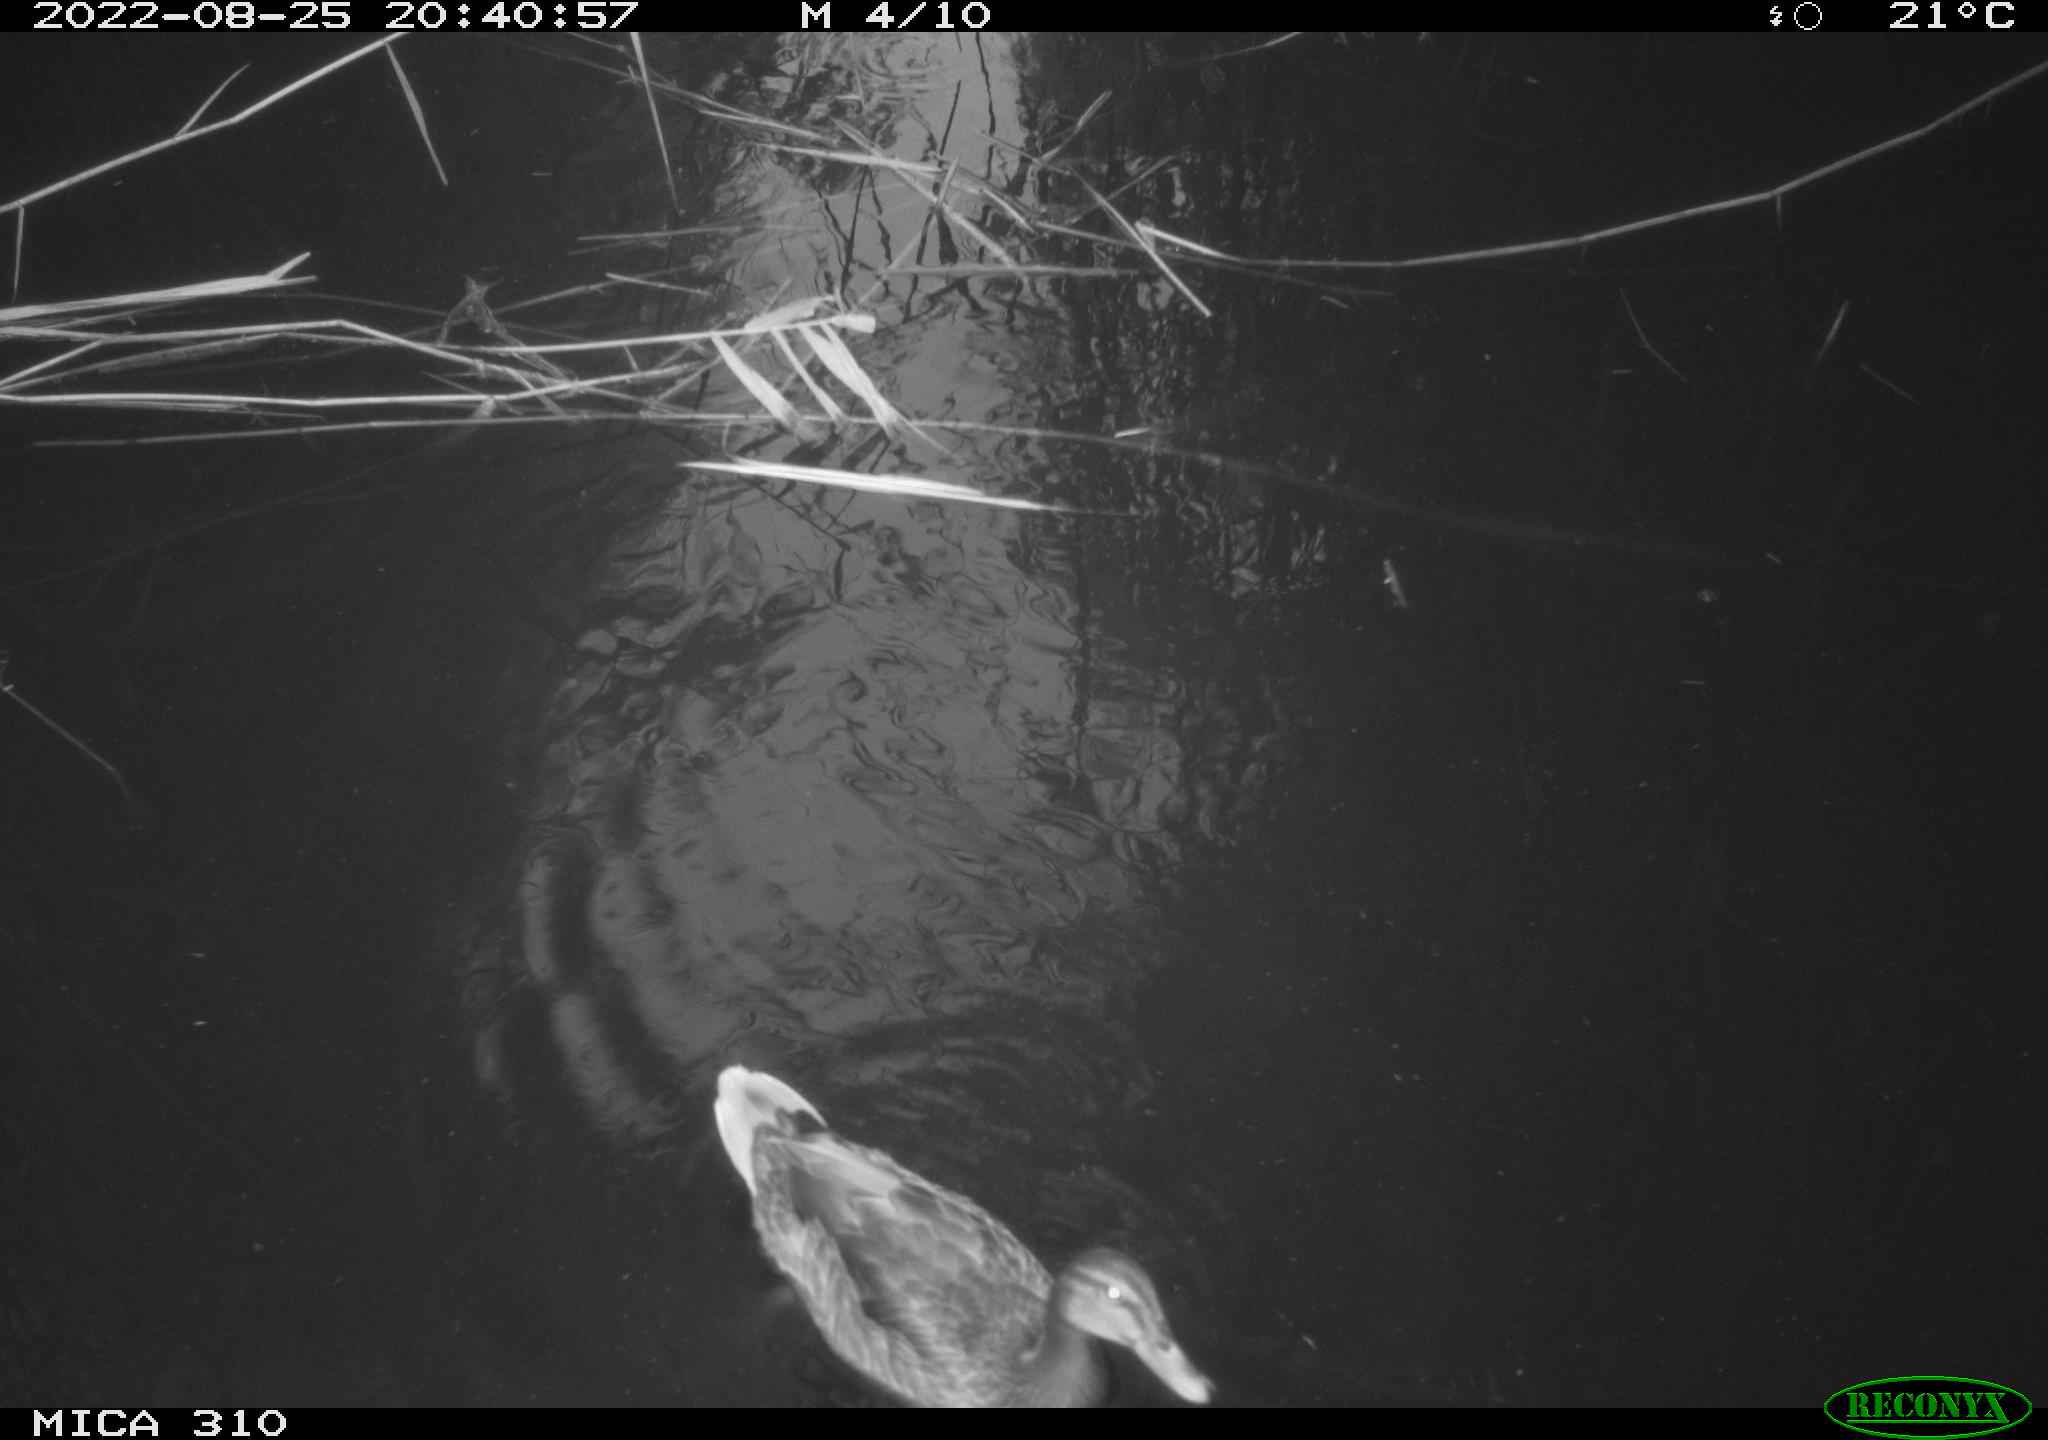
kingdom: Animalia
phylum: Chordata
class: Aves
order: Anseriformes
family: Anatidae
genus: Mareca
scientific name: Mareca strepera
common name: Gadwall
